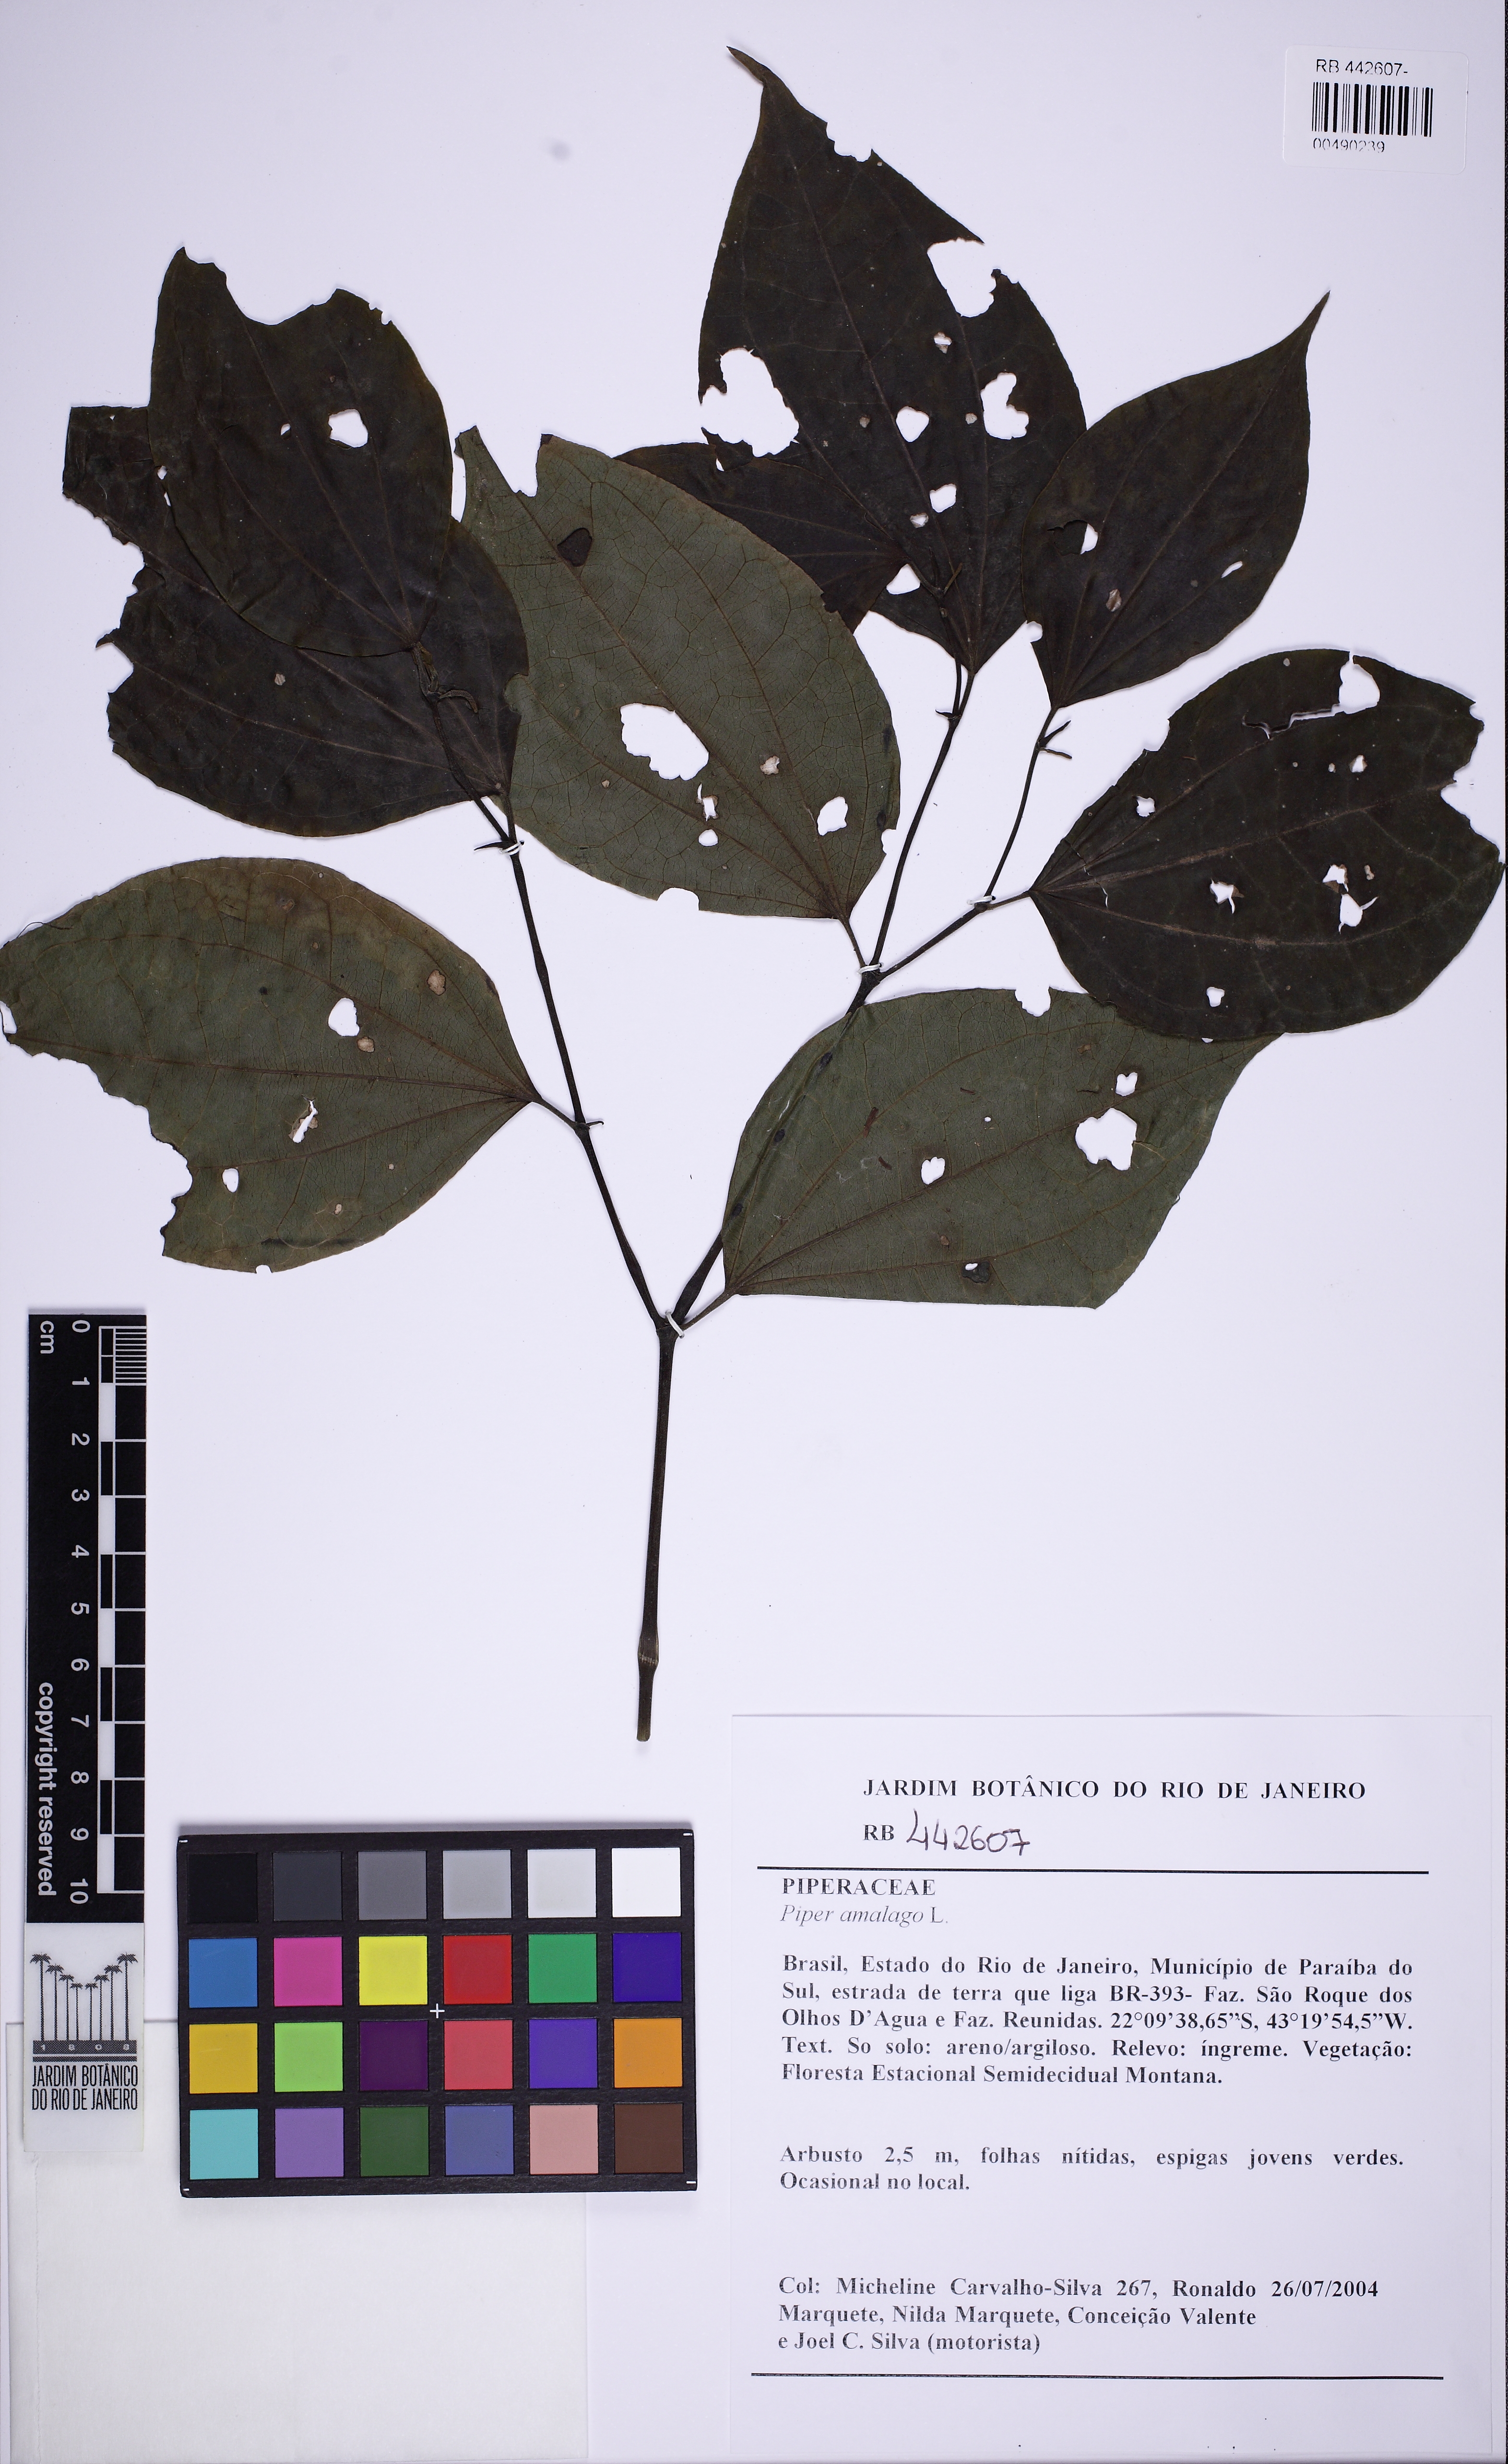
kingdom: Plantae
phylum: Tracheophyta
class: Magnoliopsida
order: Piperales
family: Piperaceae
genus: Piper
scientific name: Piper amalago
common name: Pepper-elder
